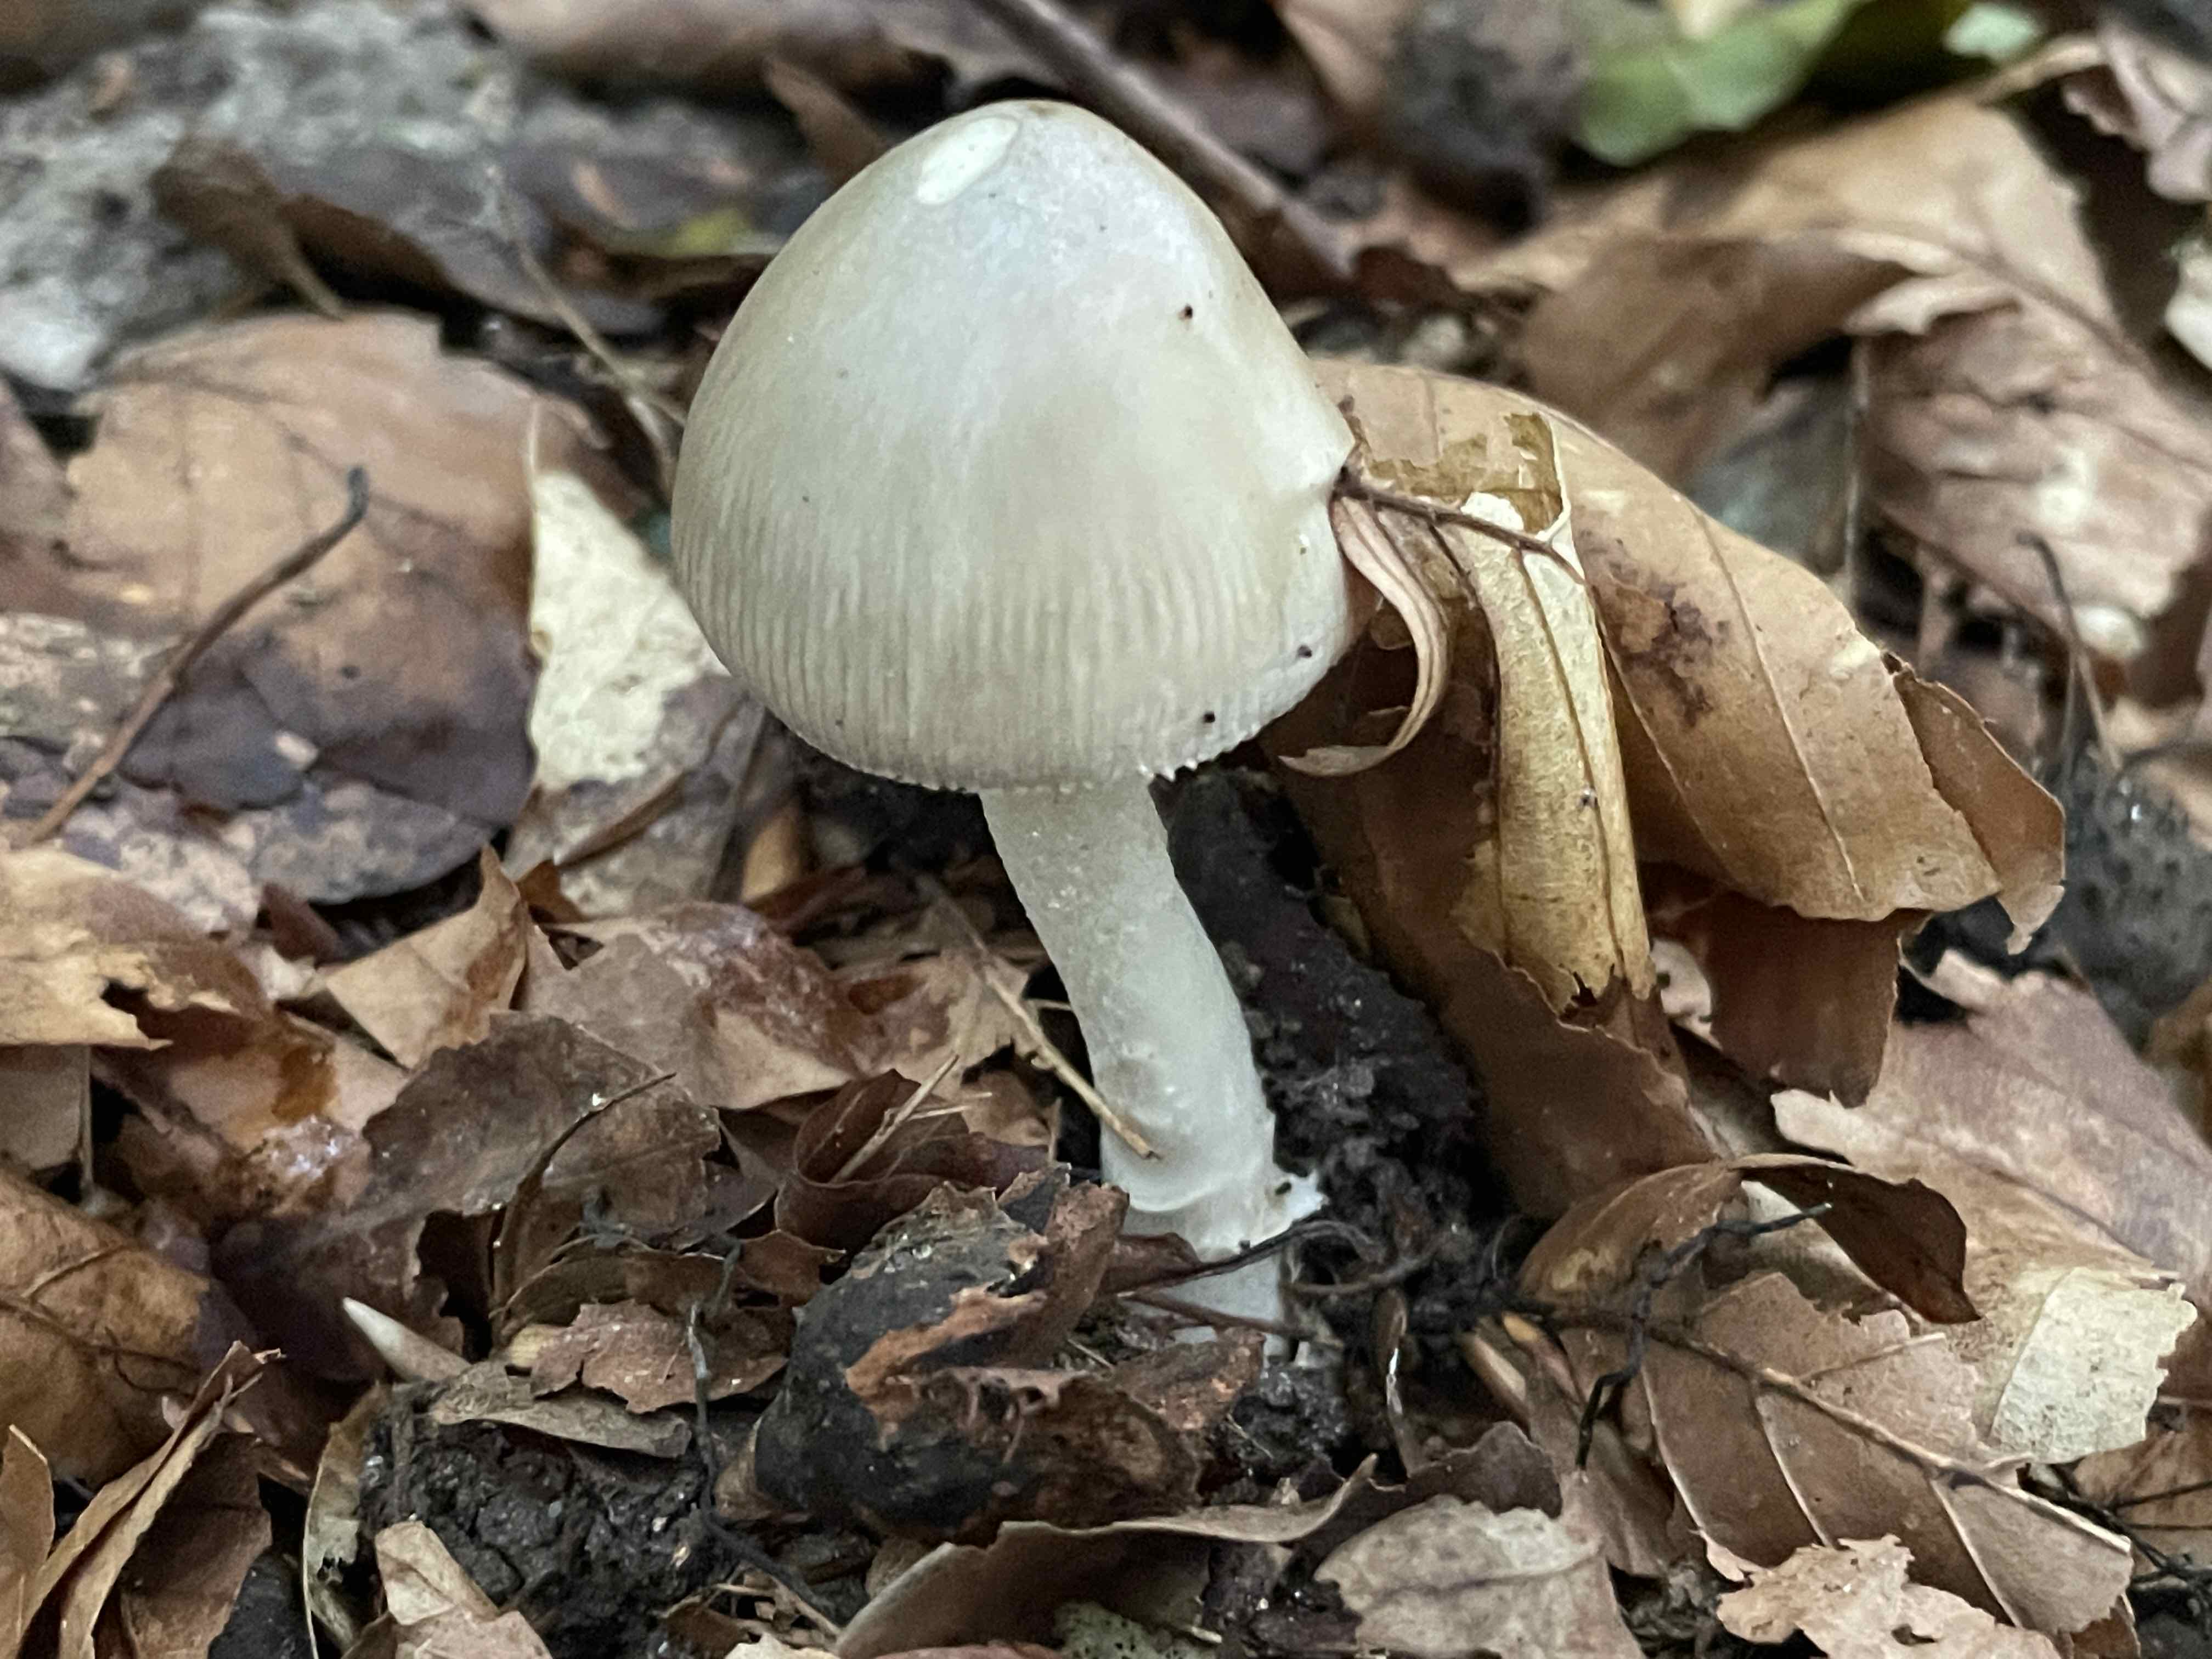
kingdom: Fungi
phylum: Basidiomycota
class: Agaricomycetes
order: Agaricales
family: Amanitaceae
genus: Amanita
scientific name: Amanita vaginata
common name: grå kam-fluesvamp
